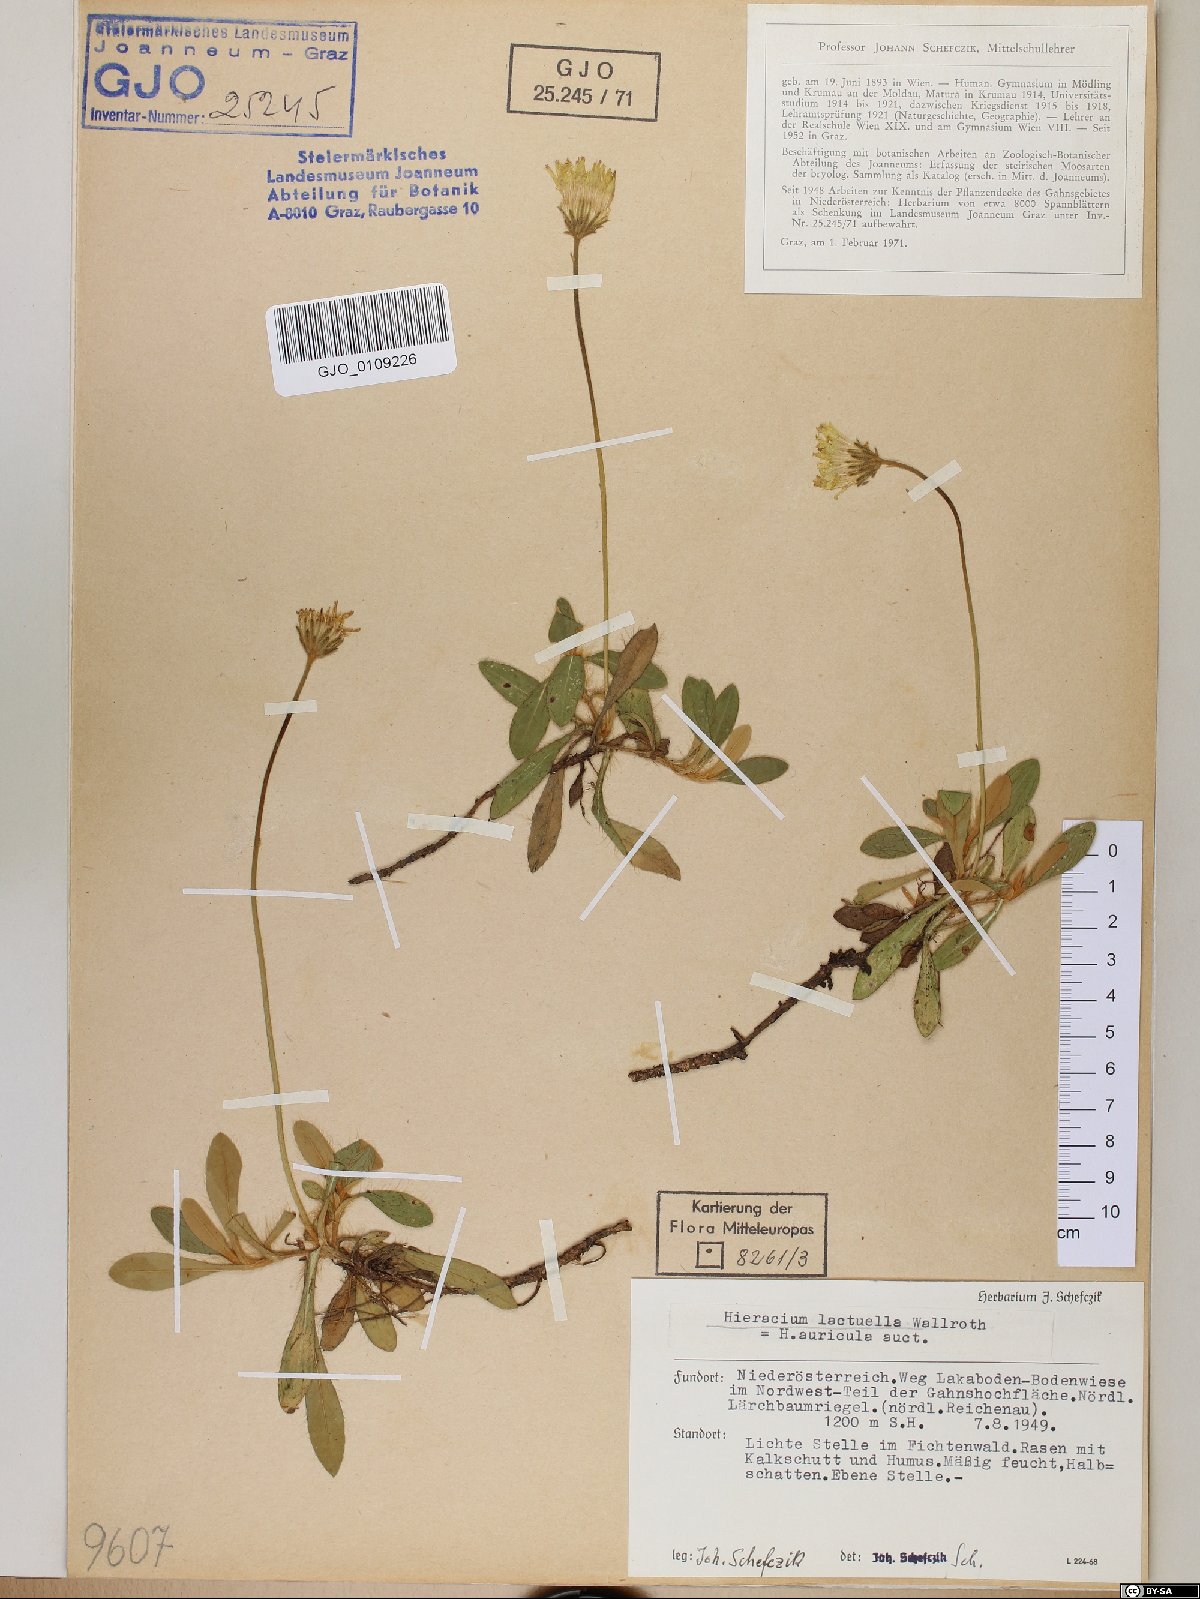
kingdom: Plantae
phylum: Tracheophyta
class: Magnoliopsida
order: Asterales
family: Asteraceae
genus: Pilosella
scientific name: Pilosella lactucella
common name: Glaucous fox-and-cubs
